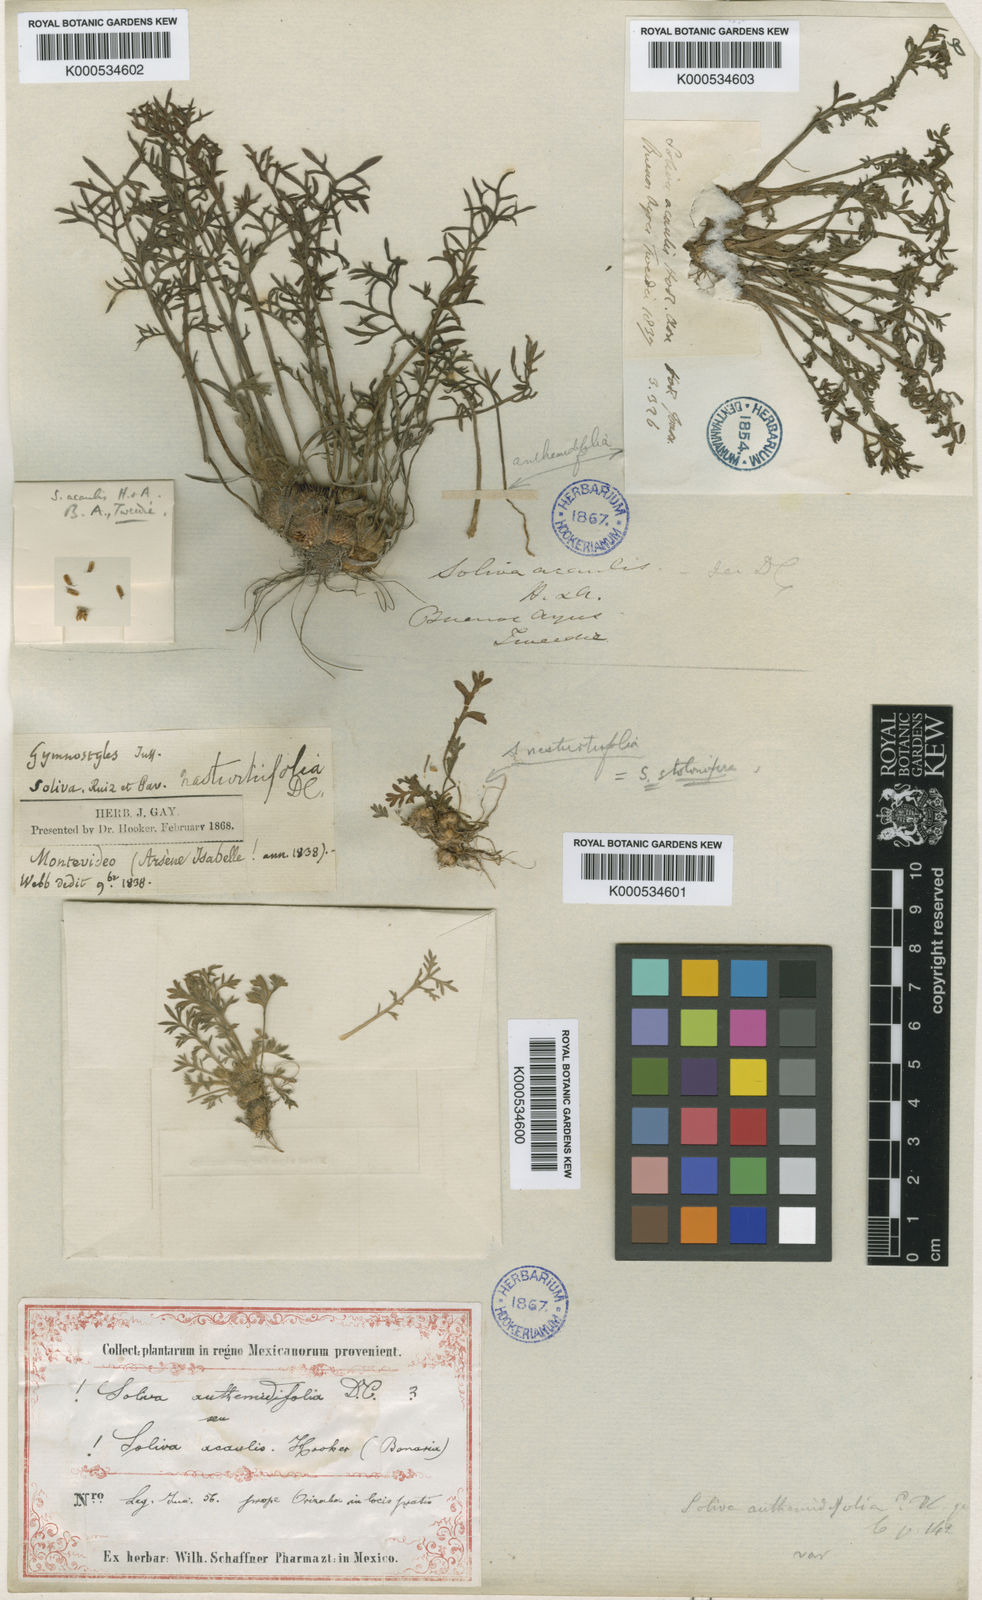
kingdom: Plantae
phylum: Tracheophyta
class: Magnoliopsida
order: Asterales
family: Asteraceae
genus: Soliva
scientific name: Soliva
